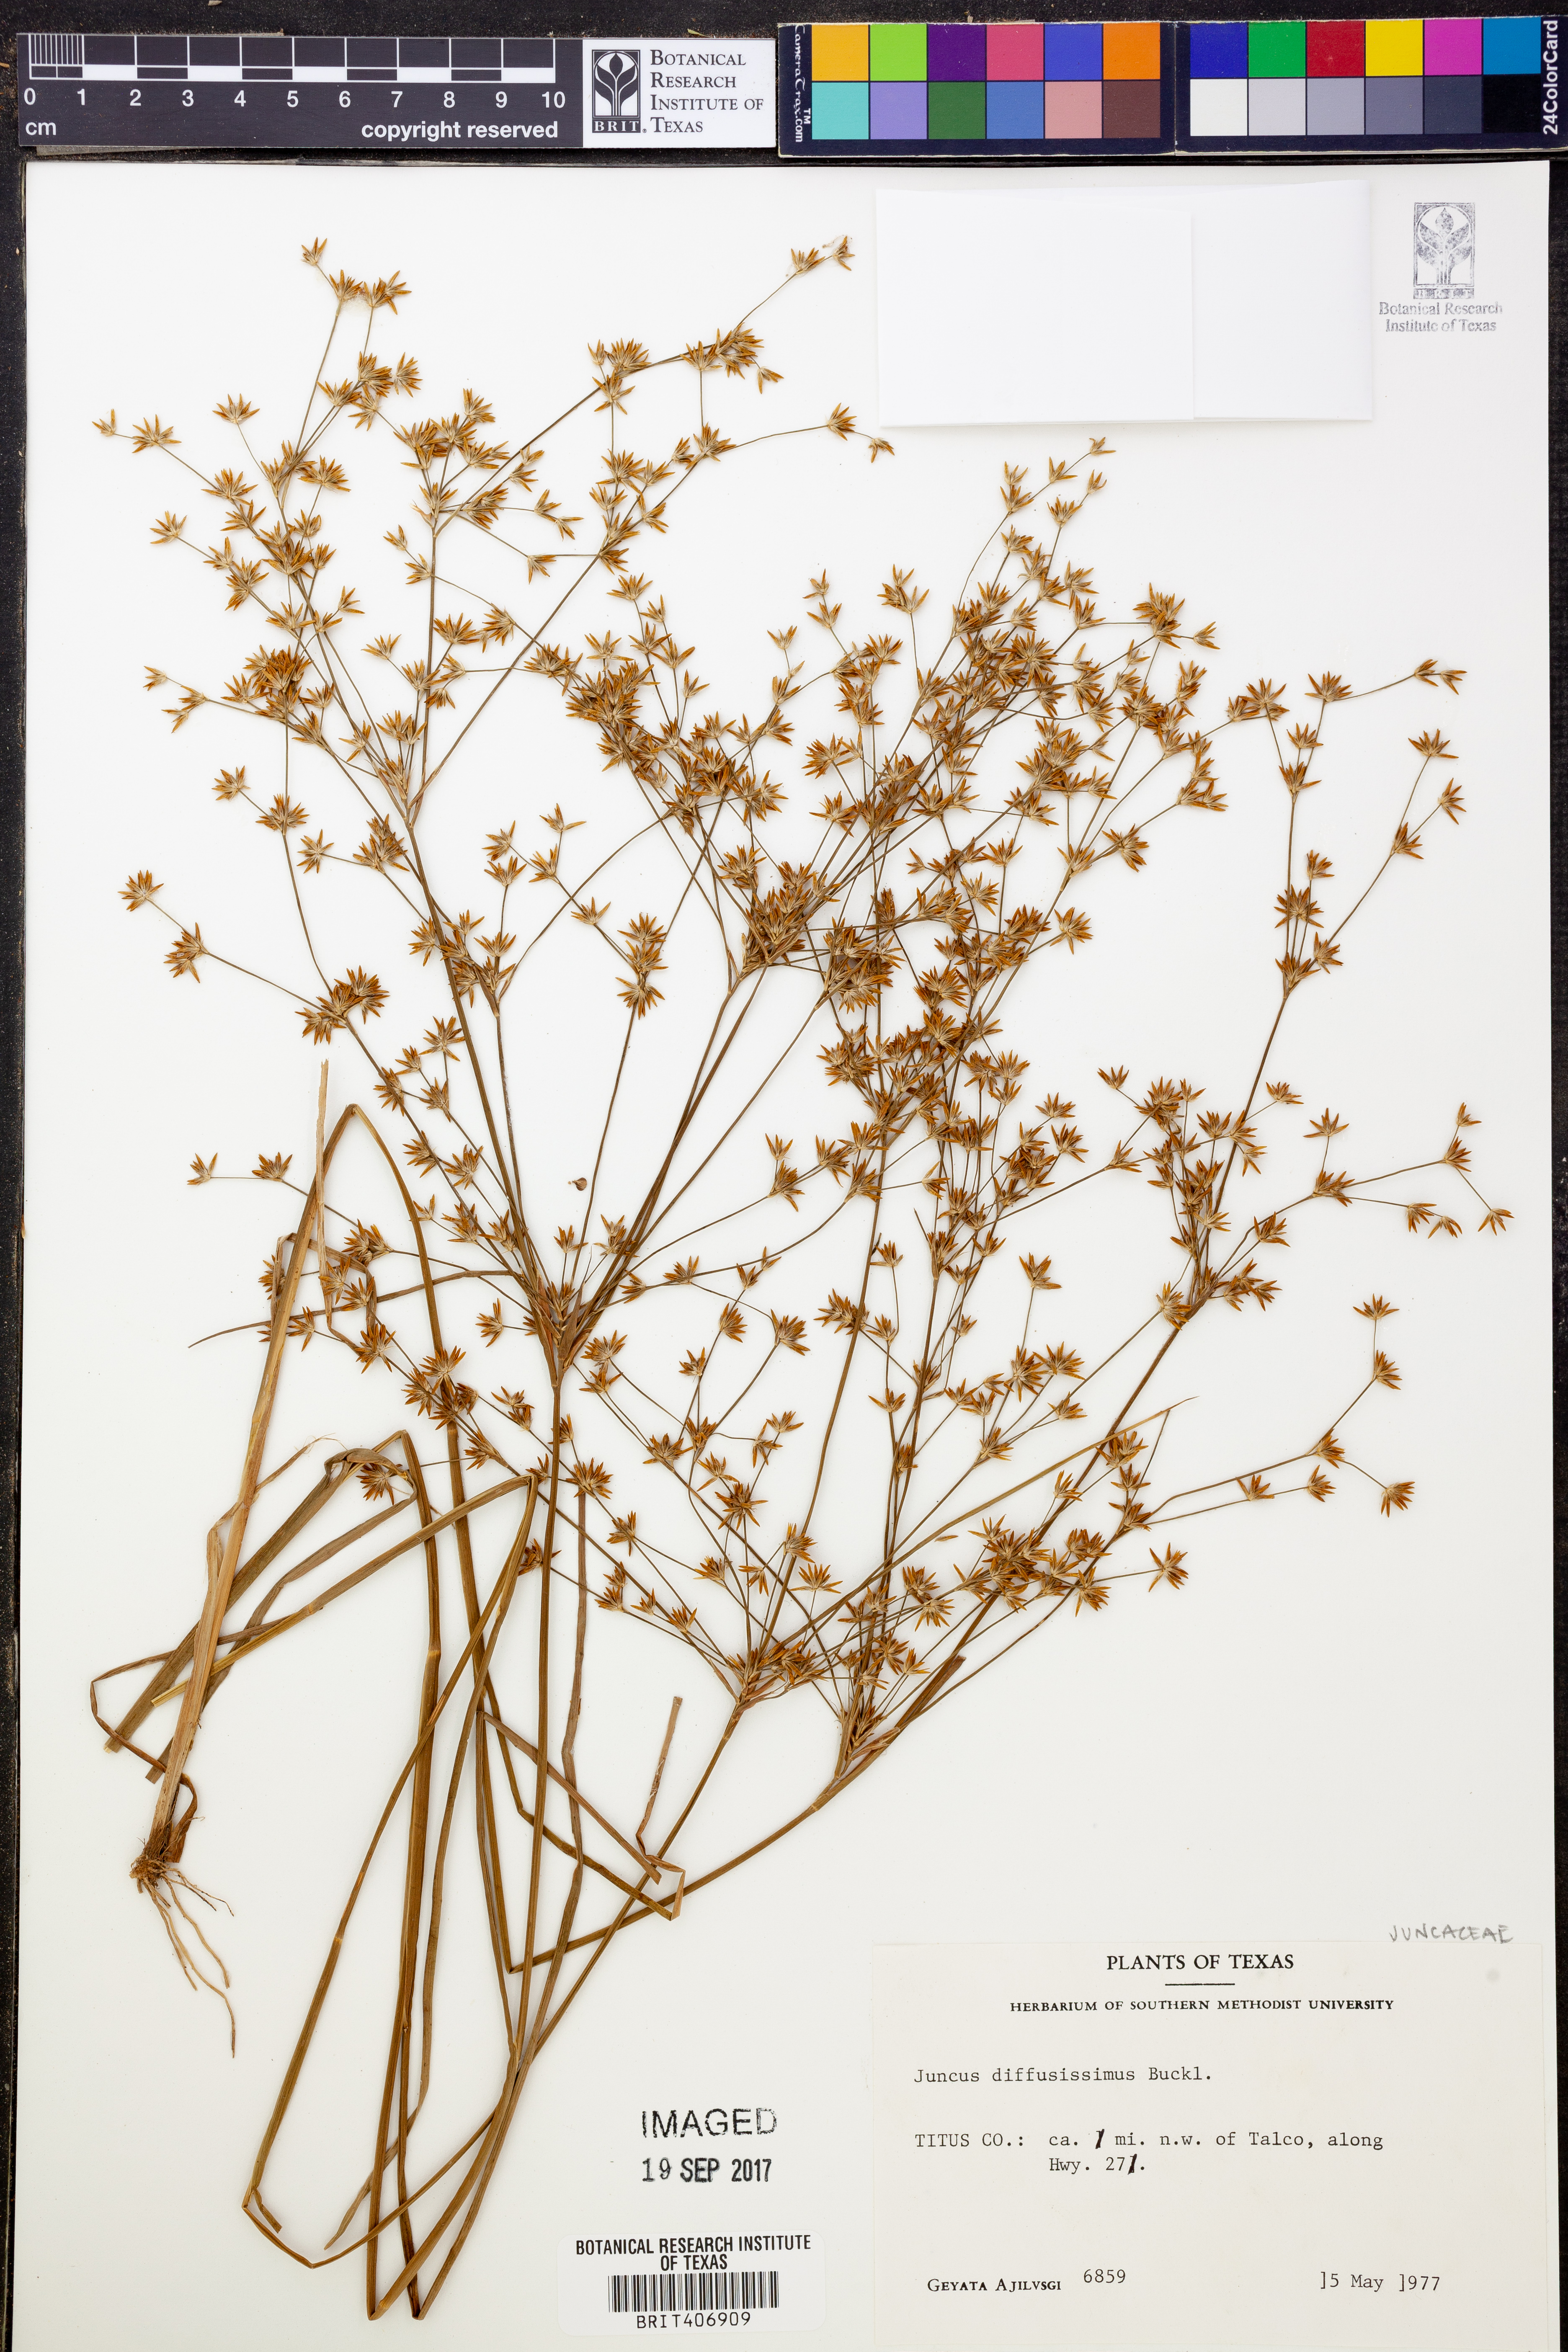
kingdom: Plantae
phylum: Tracheophyta
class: Liliopsida
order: Poales
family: Juncaceae
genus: Juncus
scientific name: Juncus diffusissimus
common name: Slimpod rush
